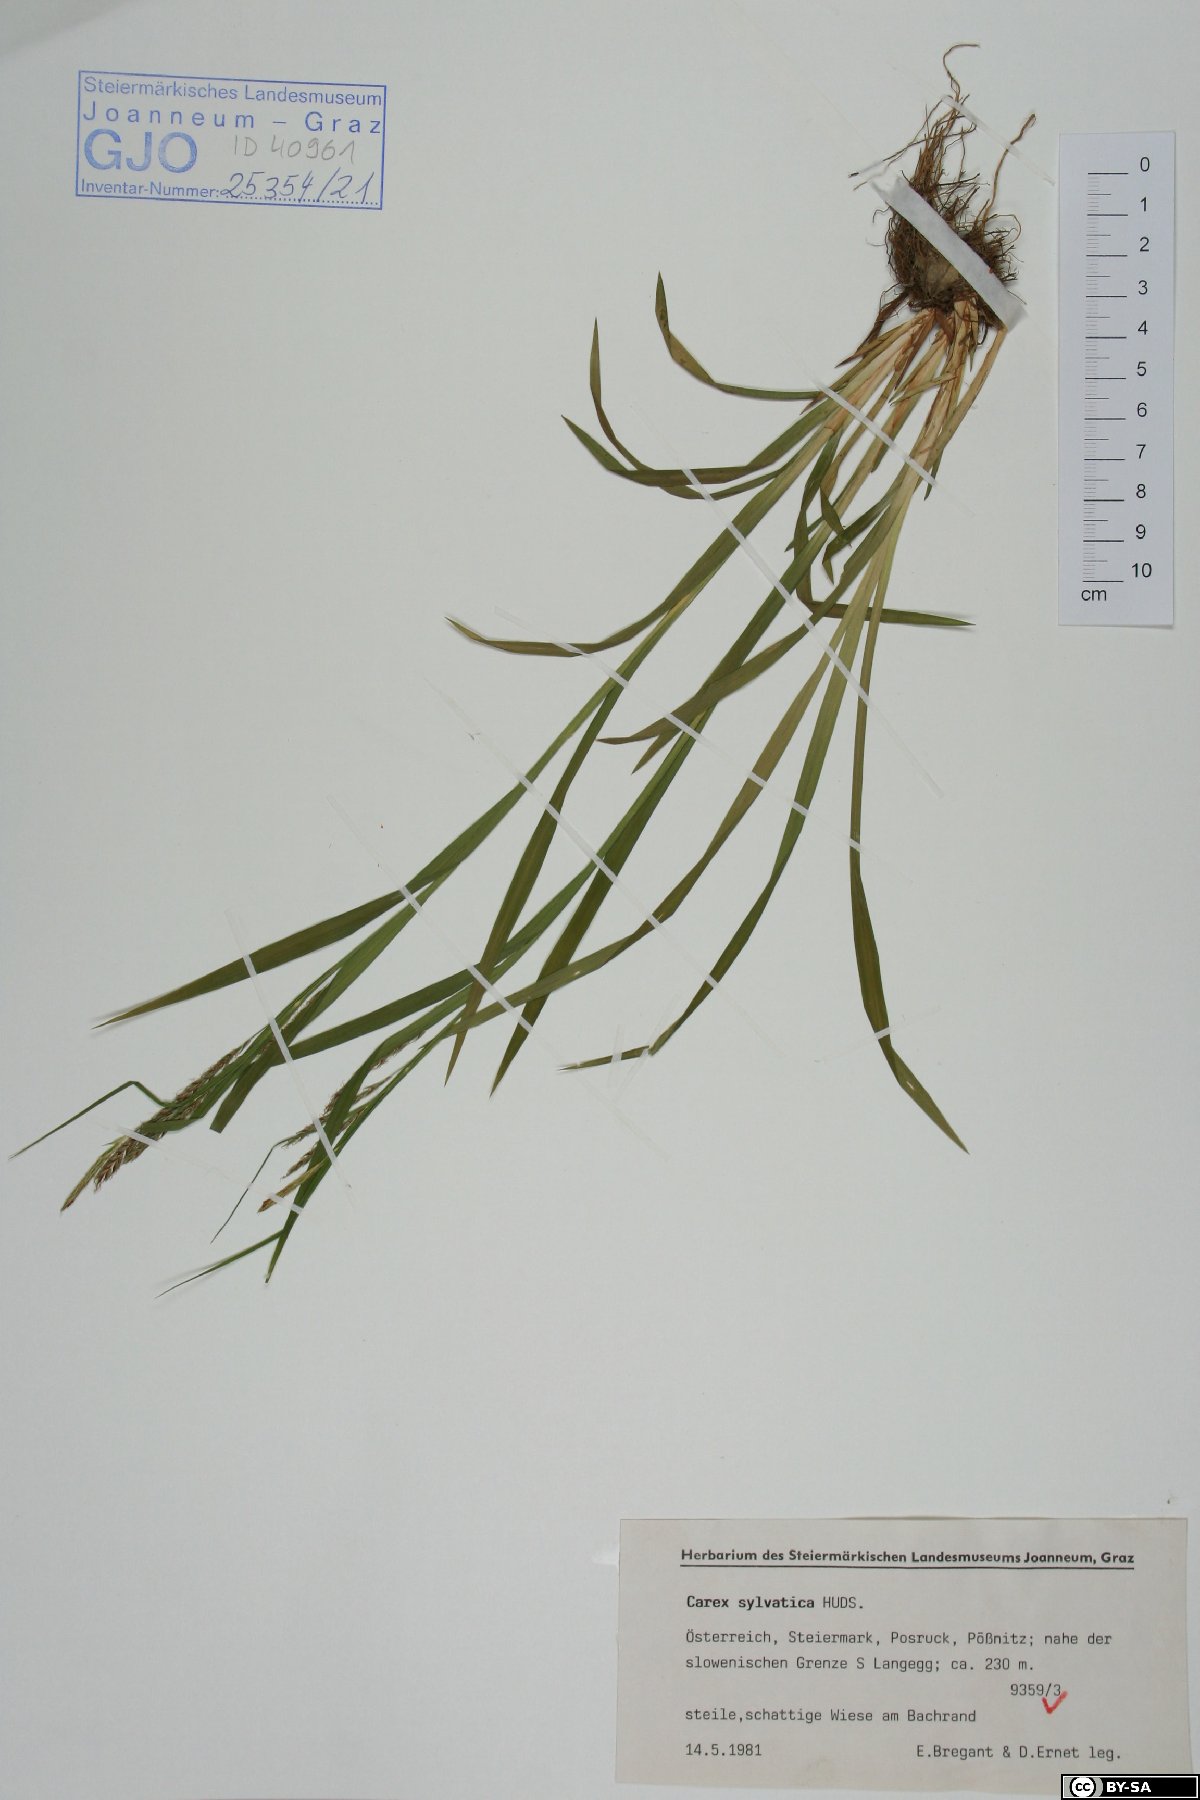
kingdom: Plantae
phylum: Tracheophyta
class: Liliopsida
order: Poales
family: Cyperaceae
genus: Carex
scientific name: Carex sylvatica
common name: Wood-sedge
